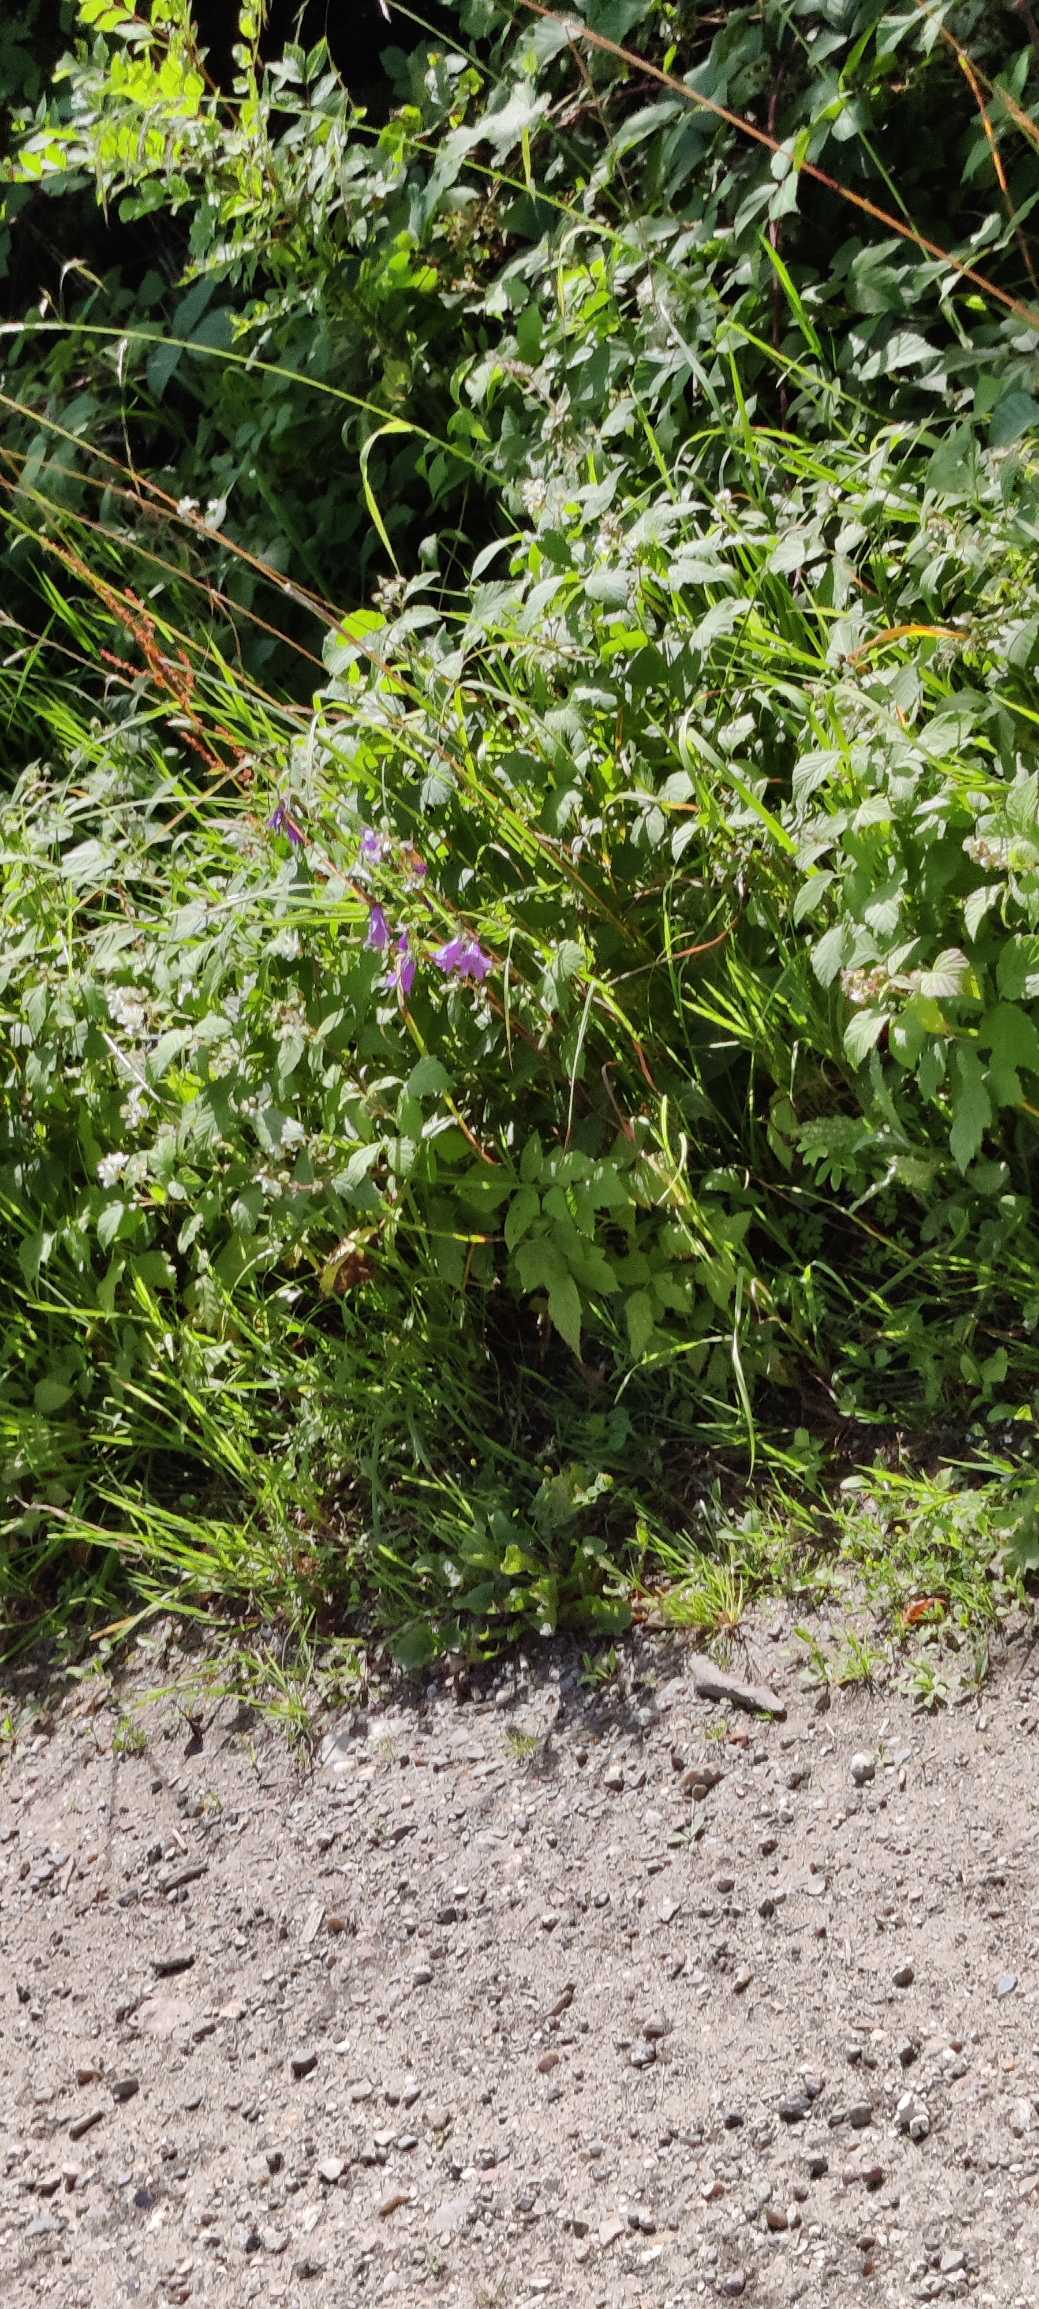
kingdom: Plantae
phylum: Tracheophyta
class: Magnoliopsida
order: Caryophyllales
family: Polygonaceae
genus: Persicaria
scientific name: Persicaria hydropiper
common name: Bidende pileurt
